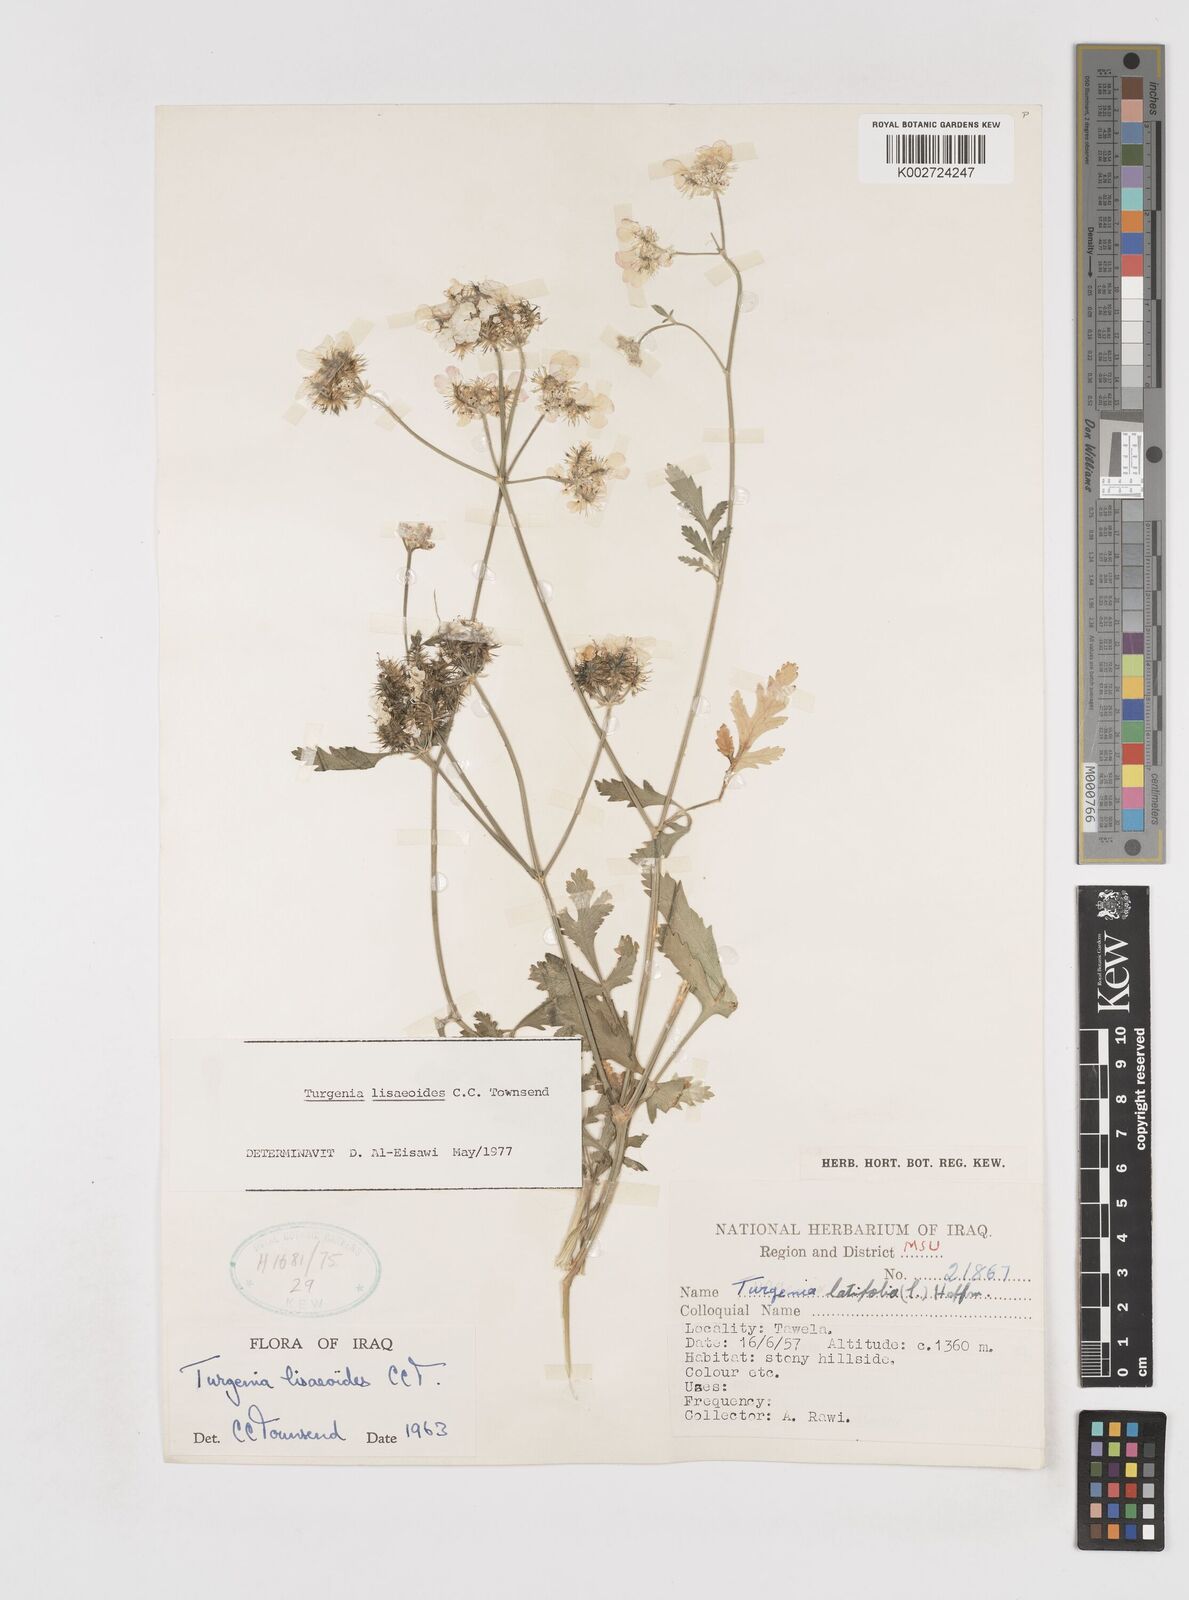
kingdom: Plantae
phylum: Tracheophyta
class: Magnoliopsida
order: Apiales
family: Apiaceae
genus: Turgenia
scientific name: Turgenia lisaeoides
